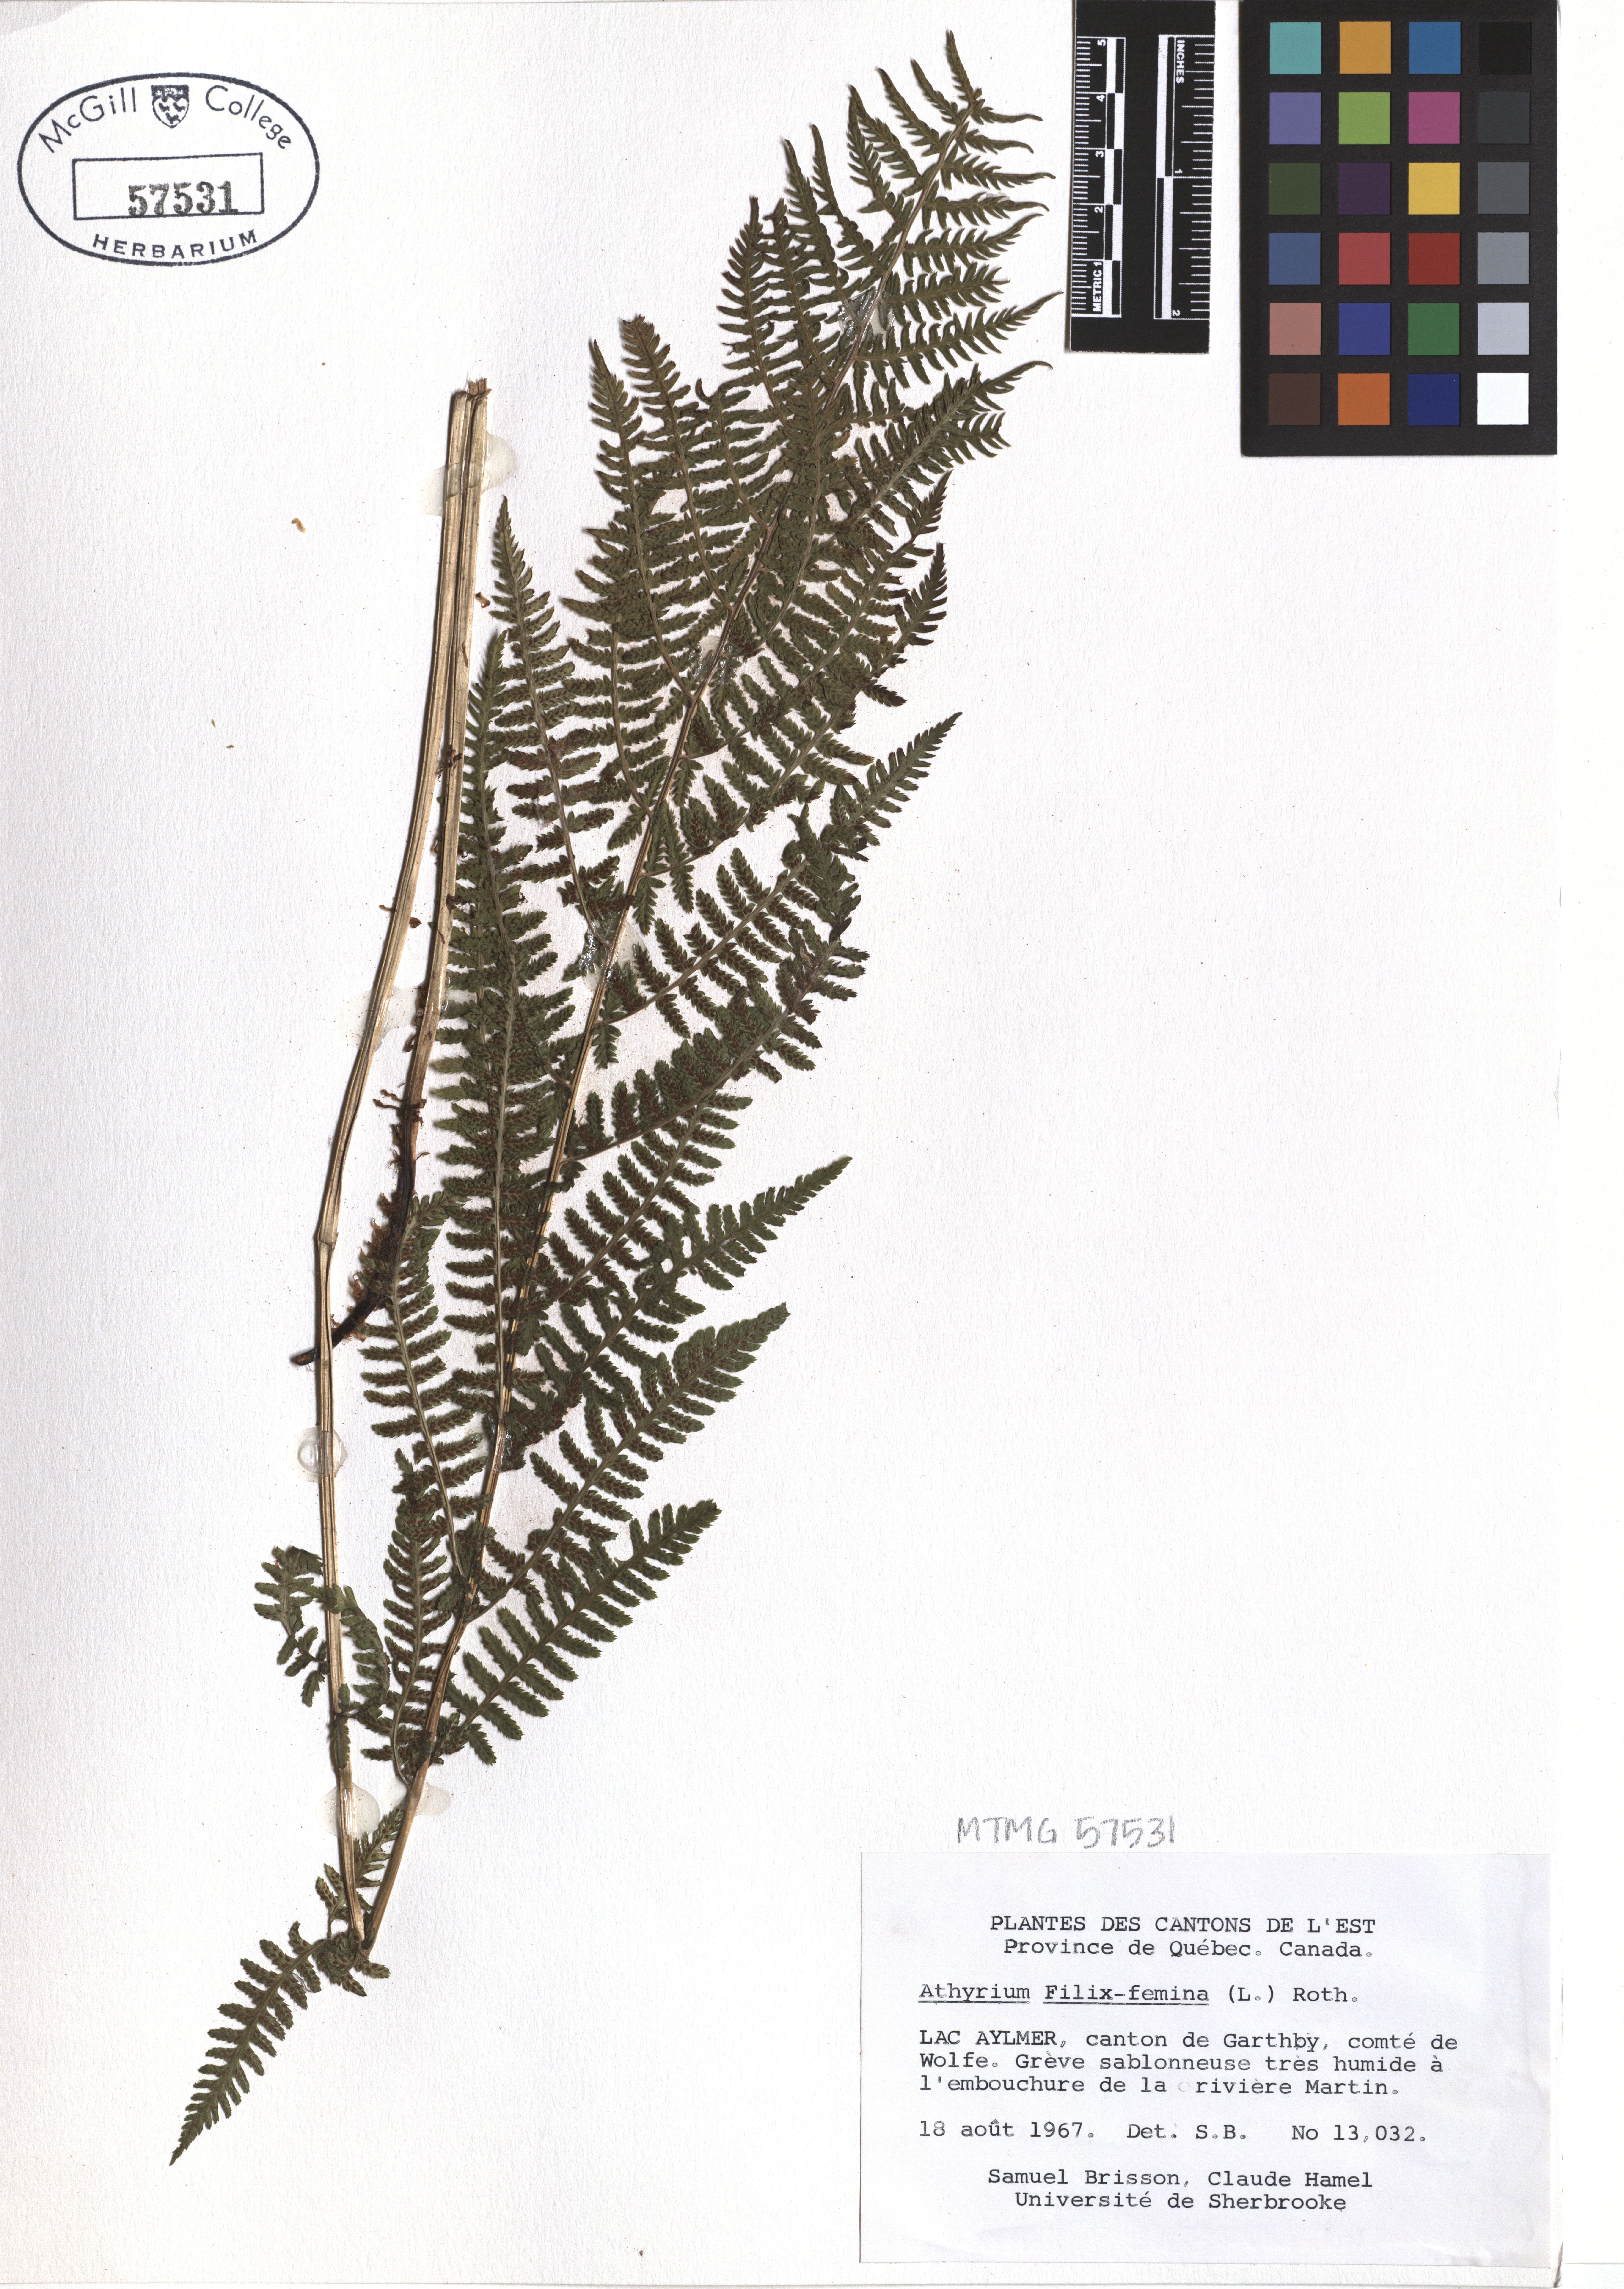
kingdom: Plantae
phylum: Tracheophyta
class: Polypodiopsida
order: Polypodiales
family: Athyriaceae
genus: Athyrium
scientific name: Athyrium filix-femina
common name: Lady fern
